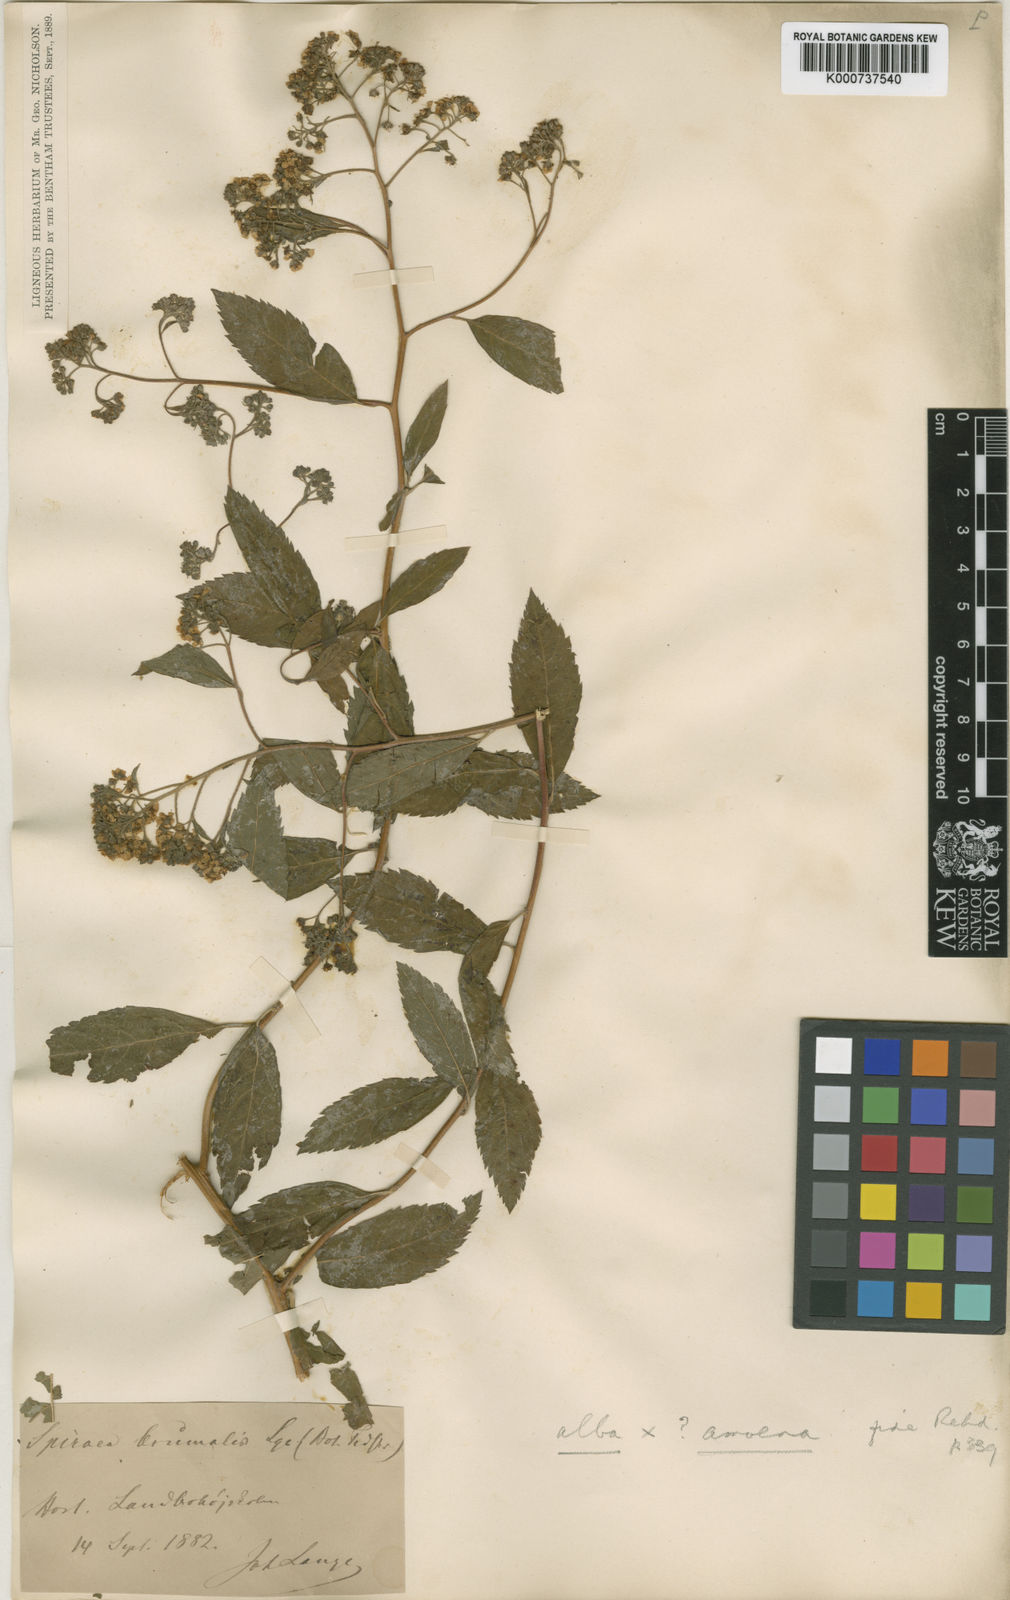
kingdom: Plantae
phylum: Tracheophyta
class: Magnoliopsida
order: Rosales
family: Rosaceae
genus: Spiraea
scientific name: Spiraea micrantha
